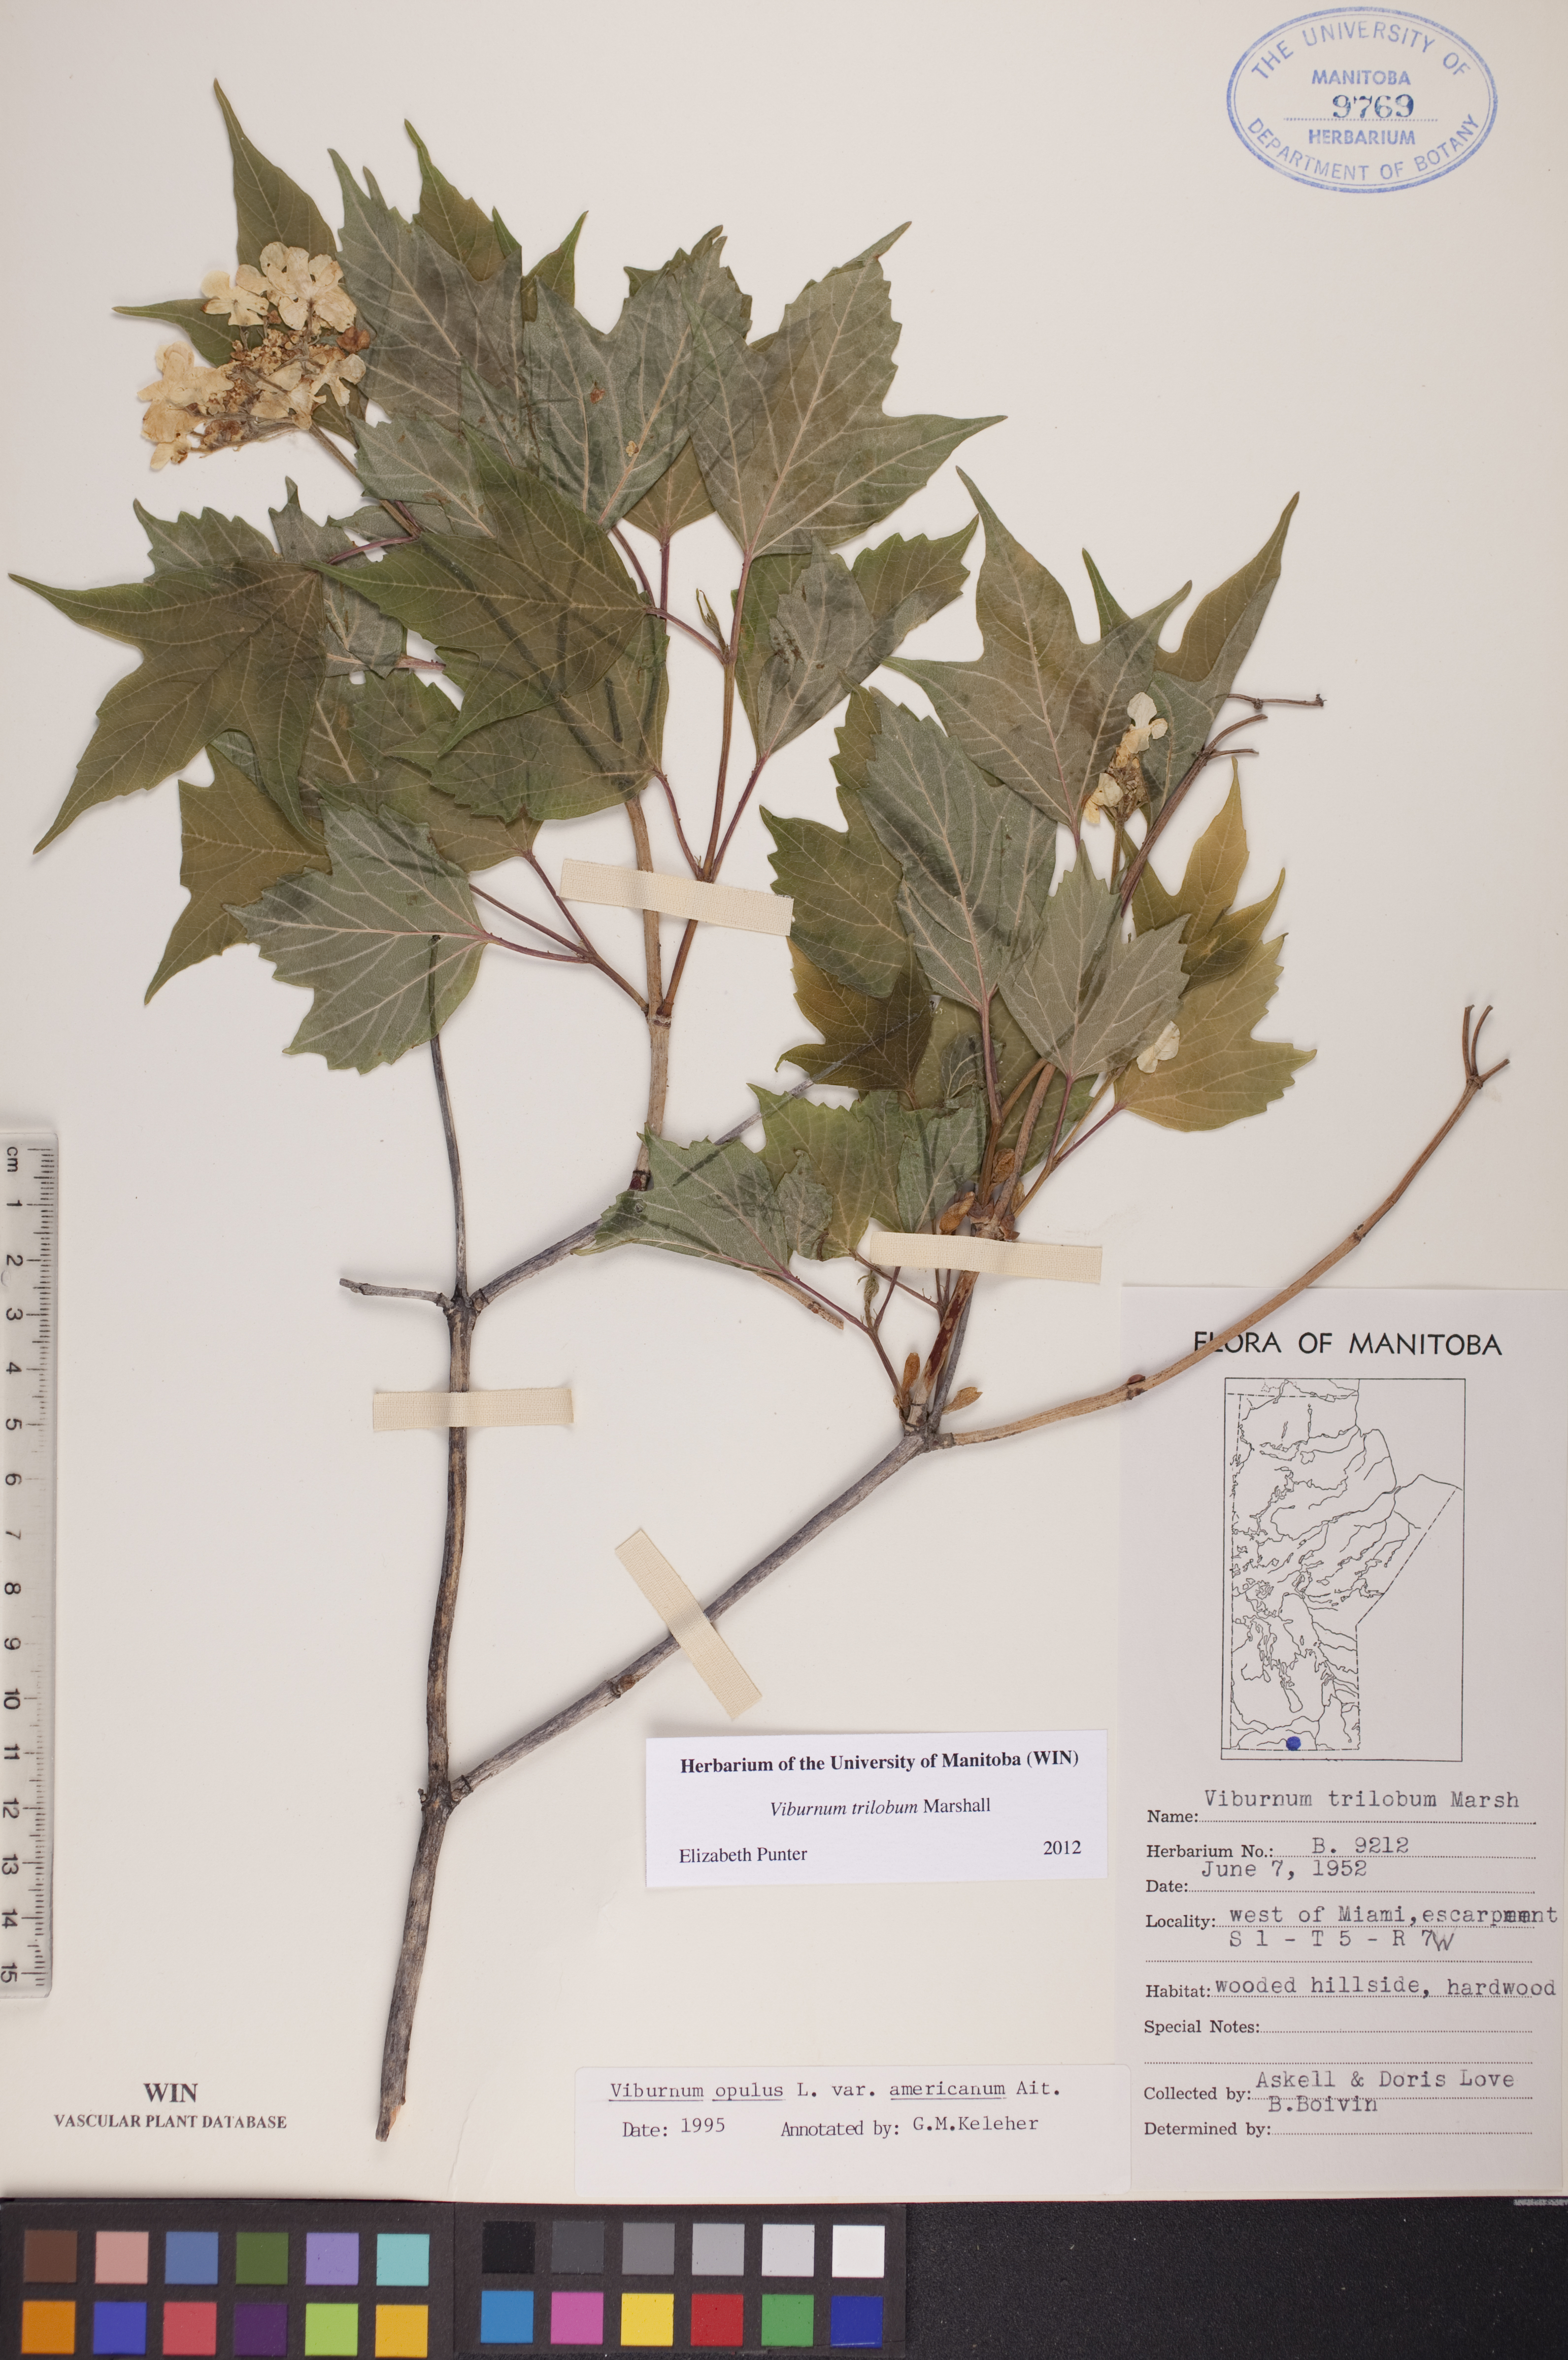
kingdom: Plantae
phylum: Tracheophyta
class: Magnoliopsida
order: Dipsacales
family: Viburnaceae
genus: Viburnum
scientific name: Viburnum trilobum
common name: American cranberrybush
